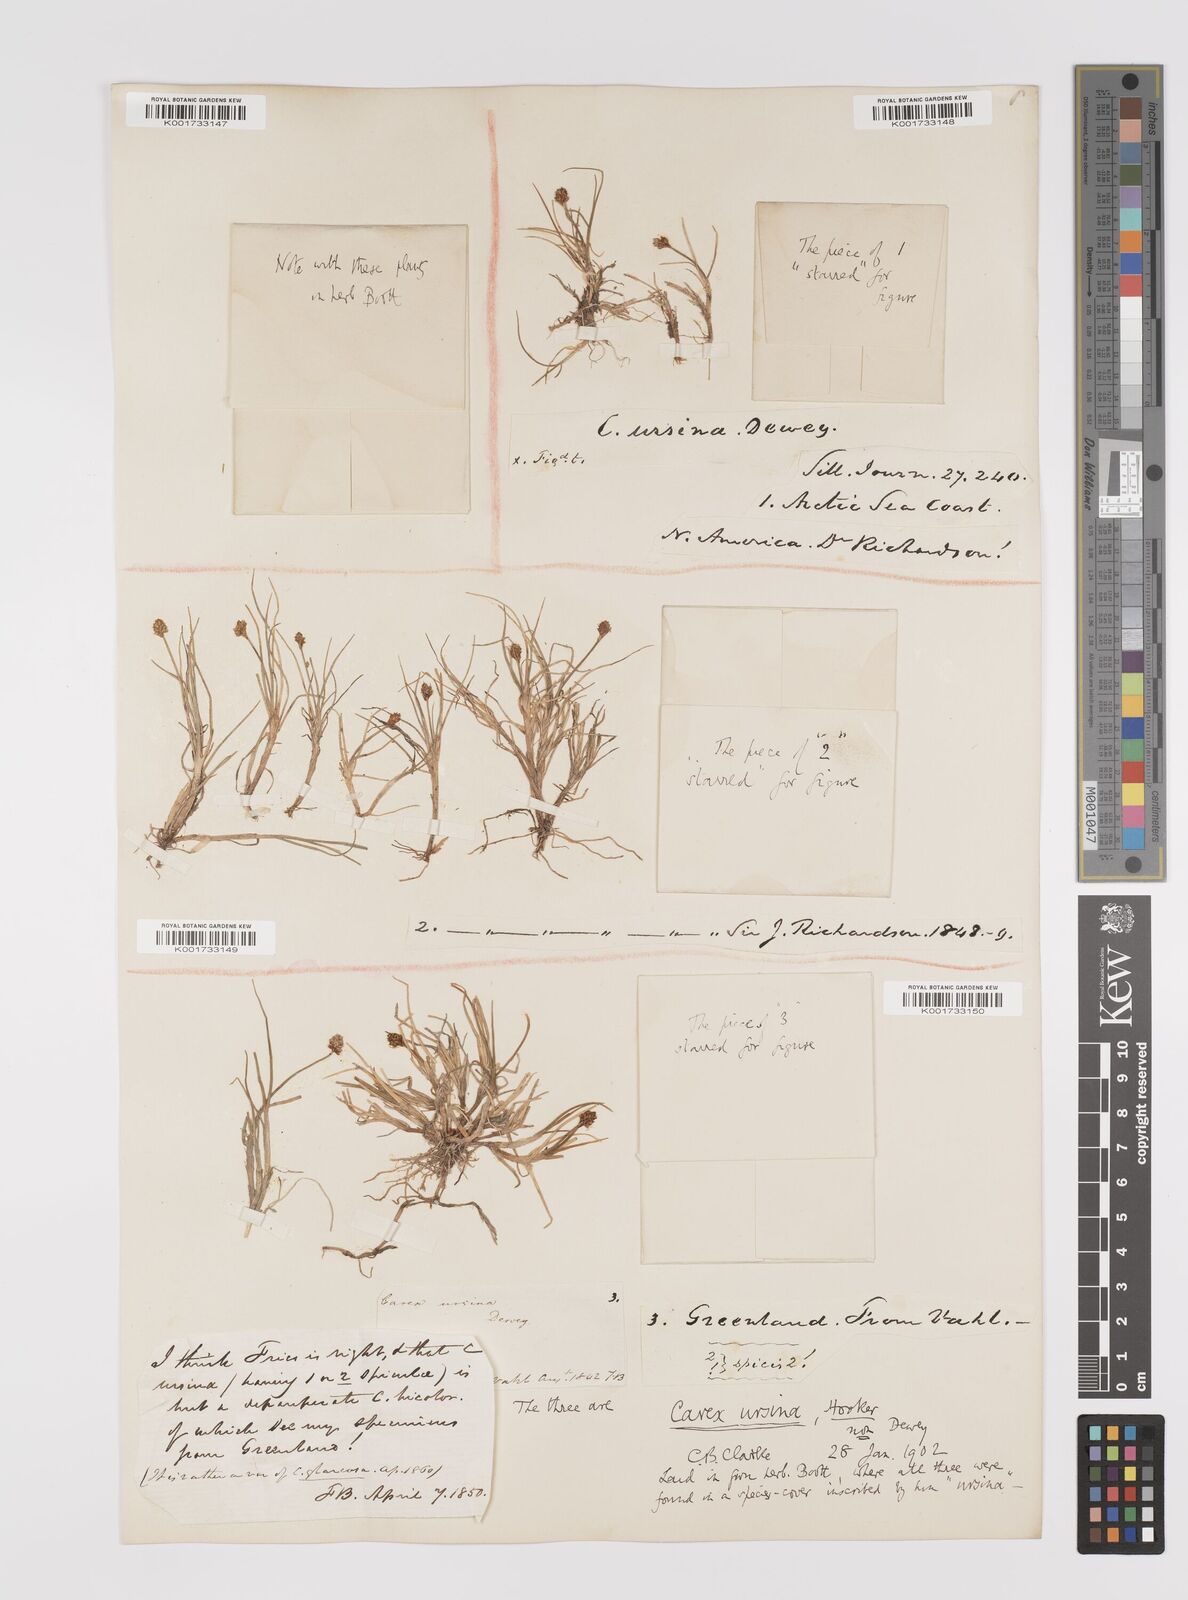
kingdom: Plantae
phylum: Tracheophyta
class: Liliopsida
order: Poales
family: Cyperaceae
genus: Carex
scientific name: Carex ursina
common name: Bear sedge
